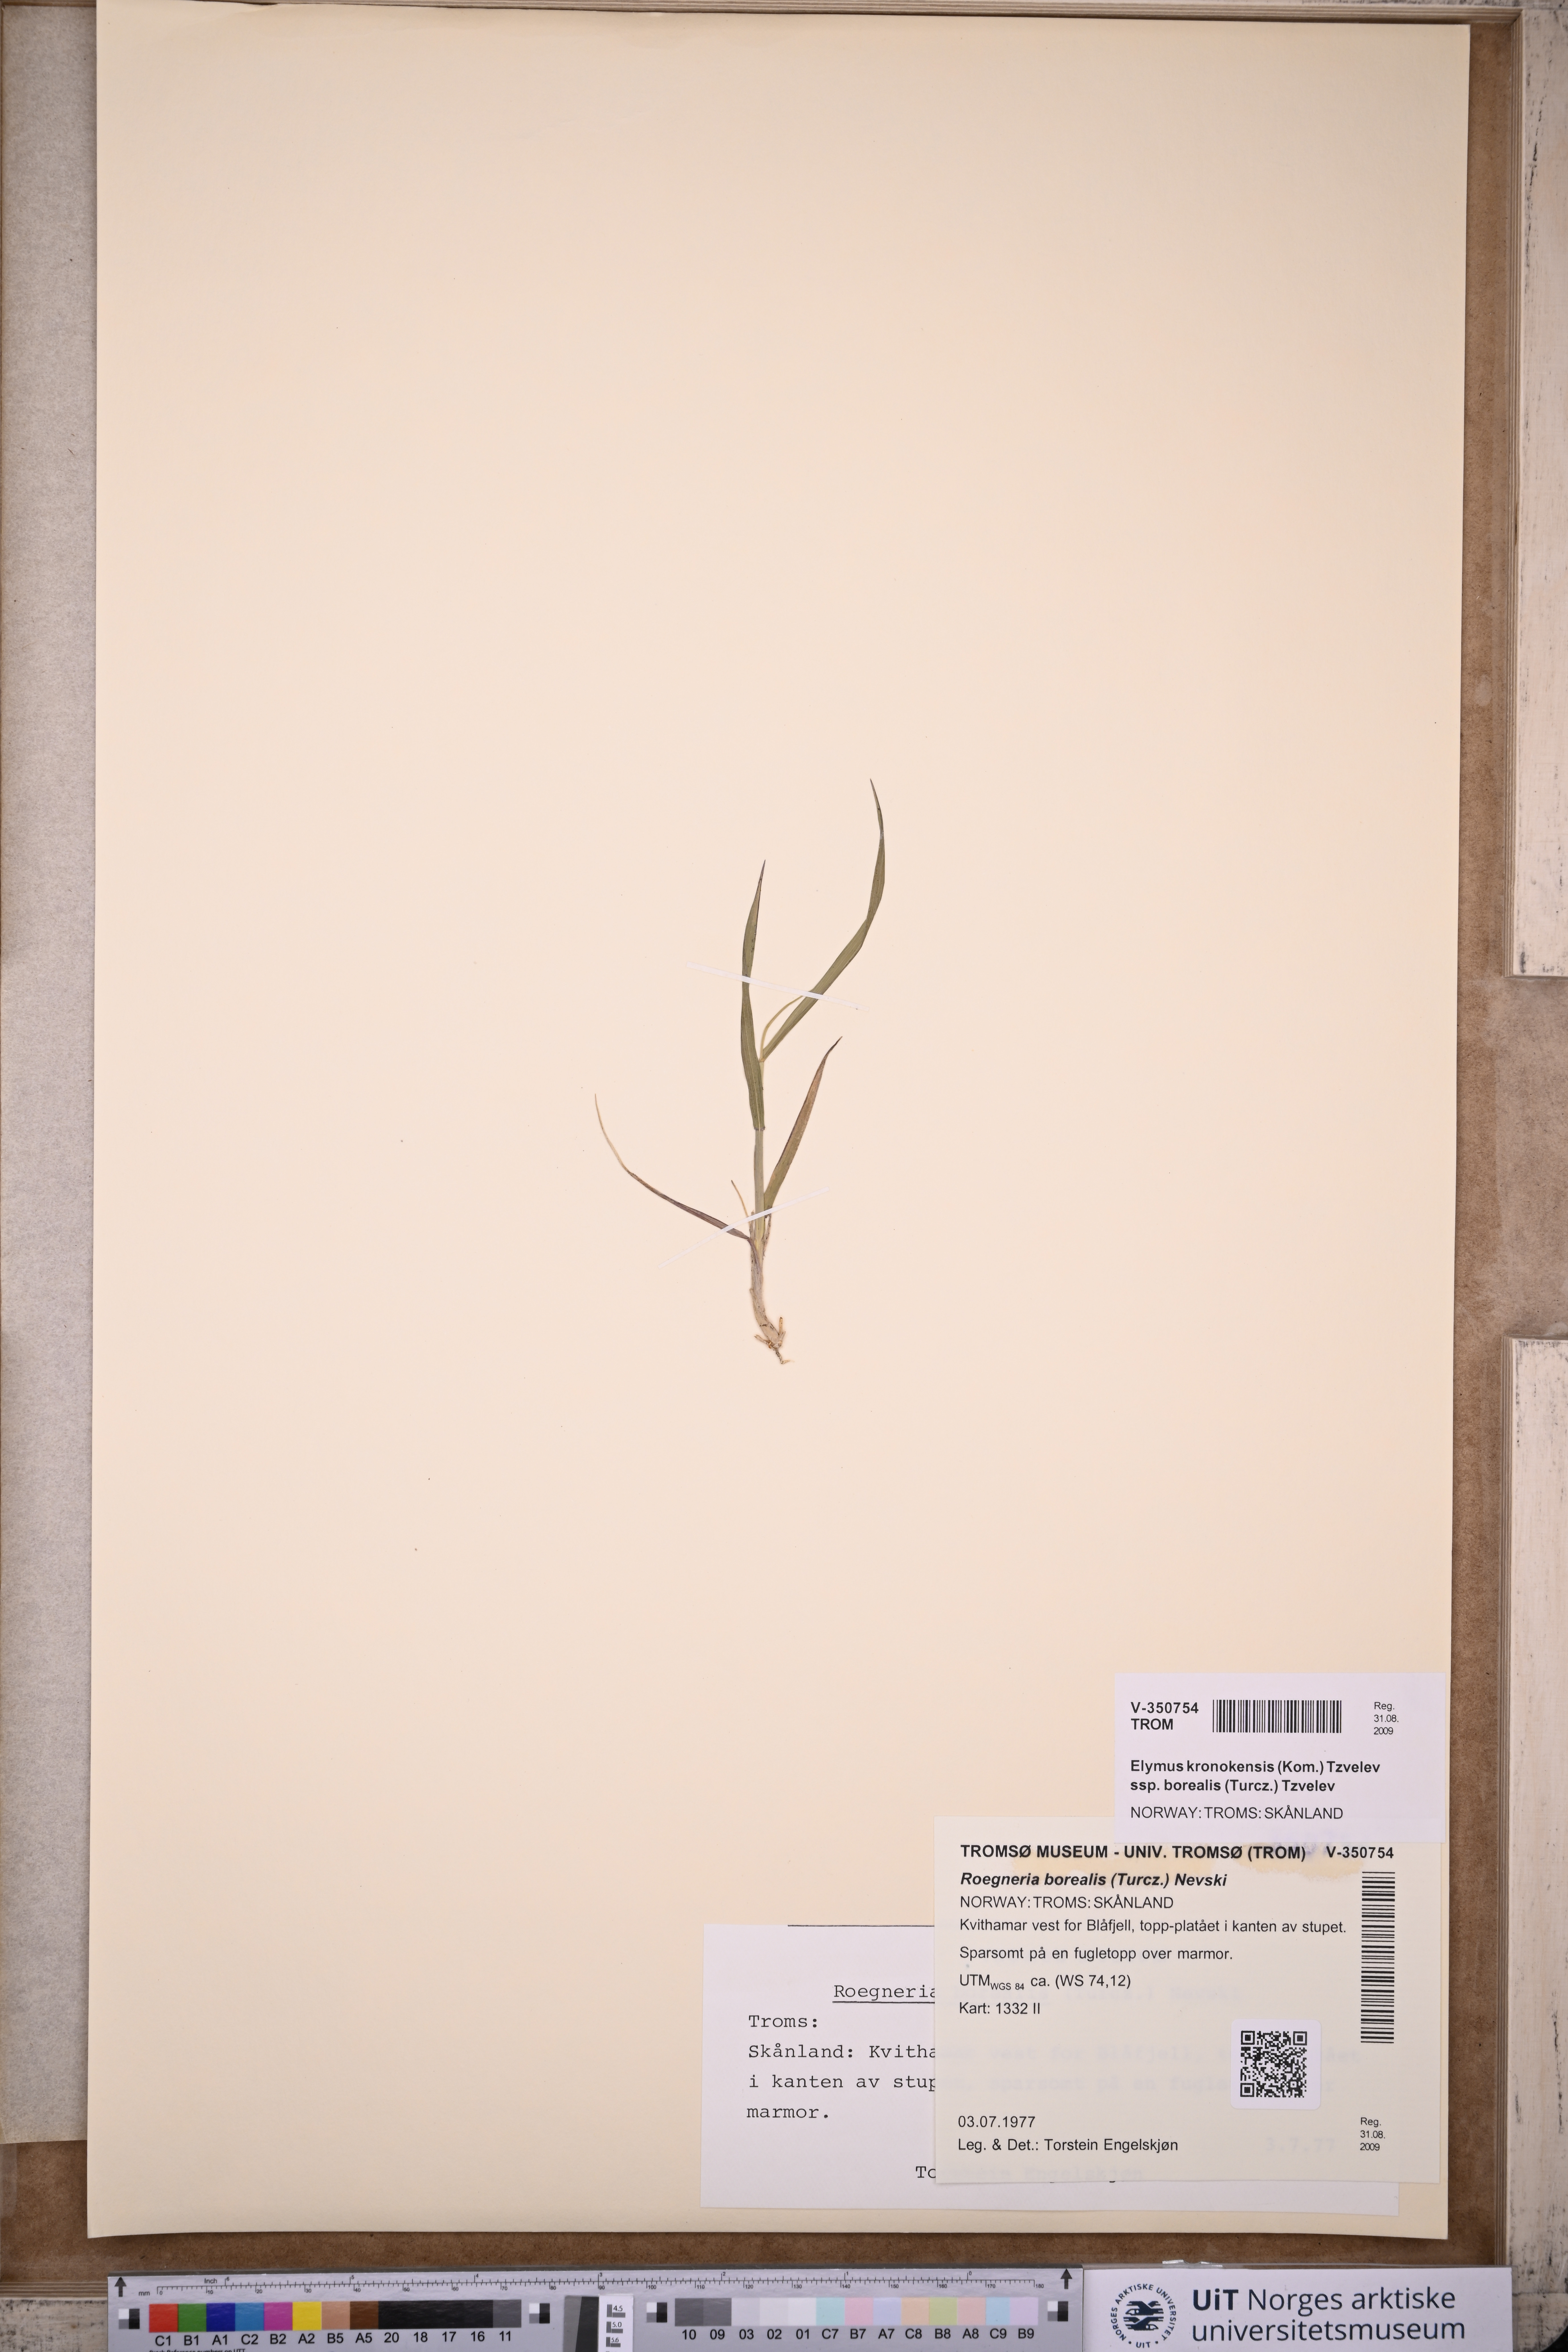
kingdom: Plantae
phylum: Tracheophyta
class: Liliopsida
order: Poales
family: Poaceae
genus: Elymus
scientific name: Elymus macrourus
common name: Northern wheatgrass
